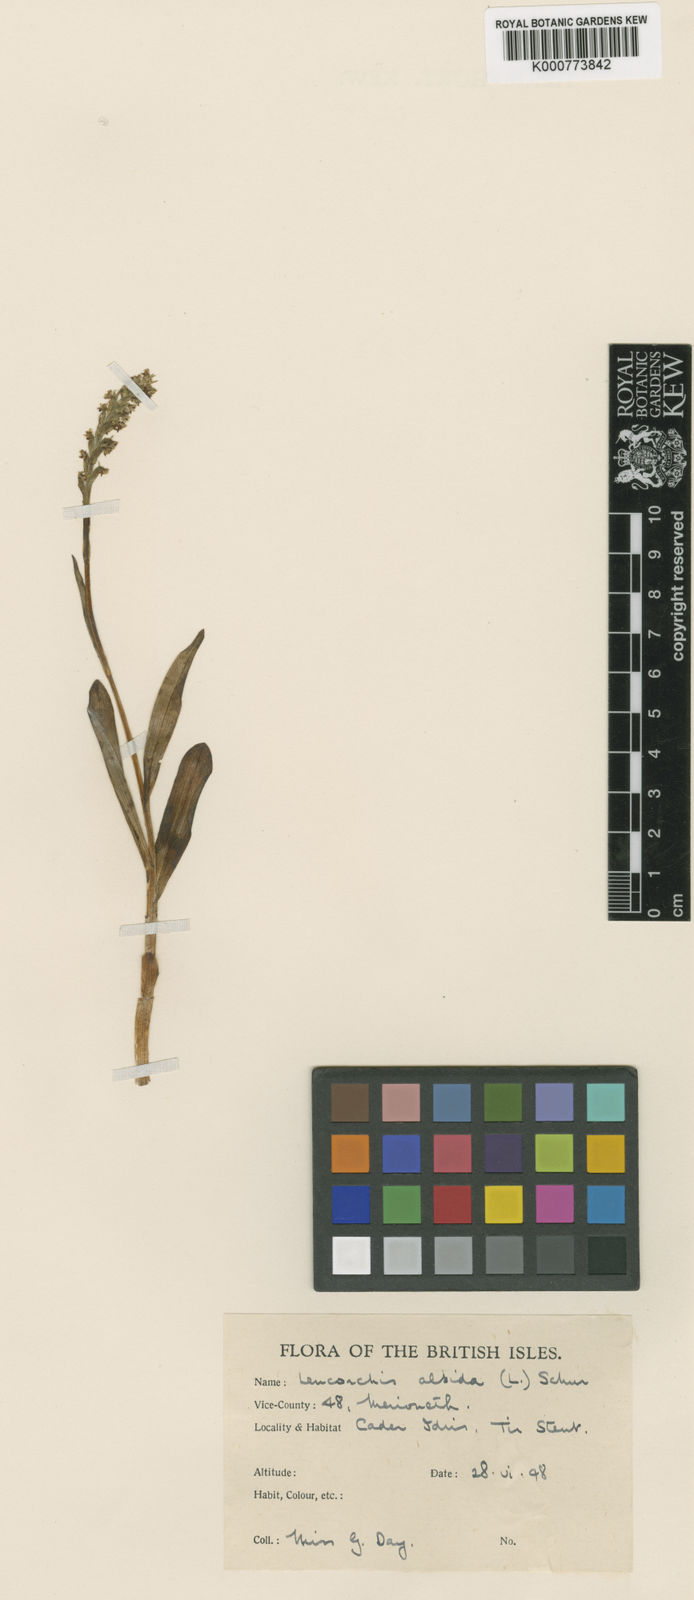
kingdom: Plantae
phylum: Tracheophyta
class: Liliopsida
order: Asparagales
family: Orchidaceae
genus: Pseudorchis
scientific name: Pseudorchis
